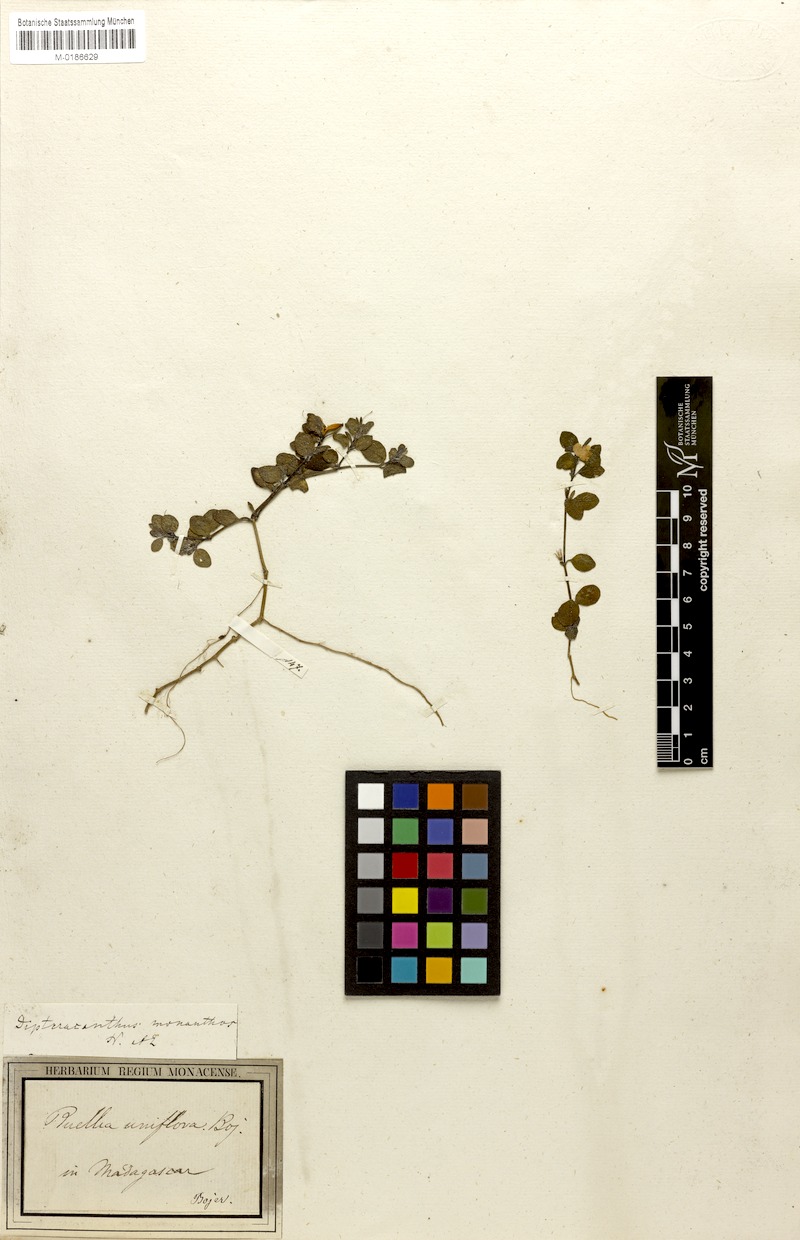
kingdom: Plantae
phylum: Tracheophyta
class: Magnoliopsida
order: Lamiales
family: Acanthaceae
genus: Ruellia
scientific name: Ruellia monanthos
